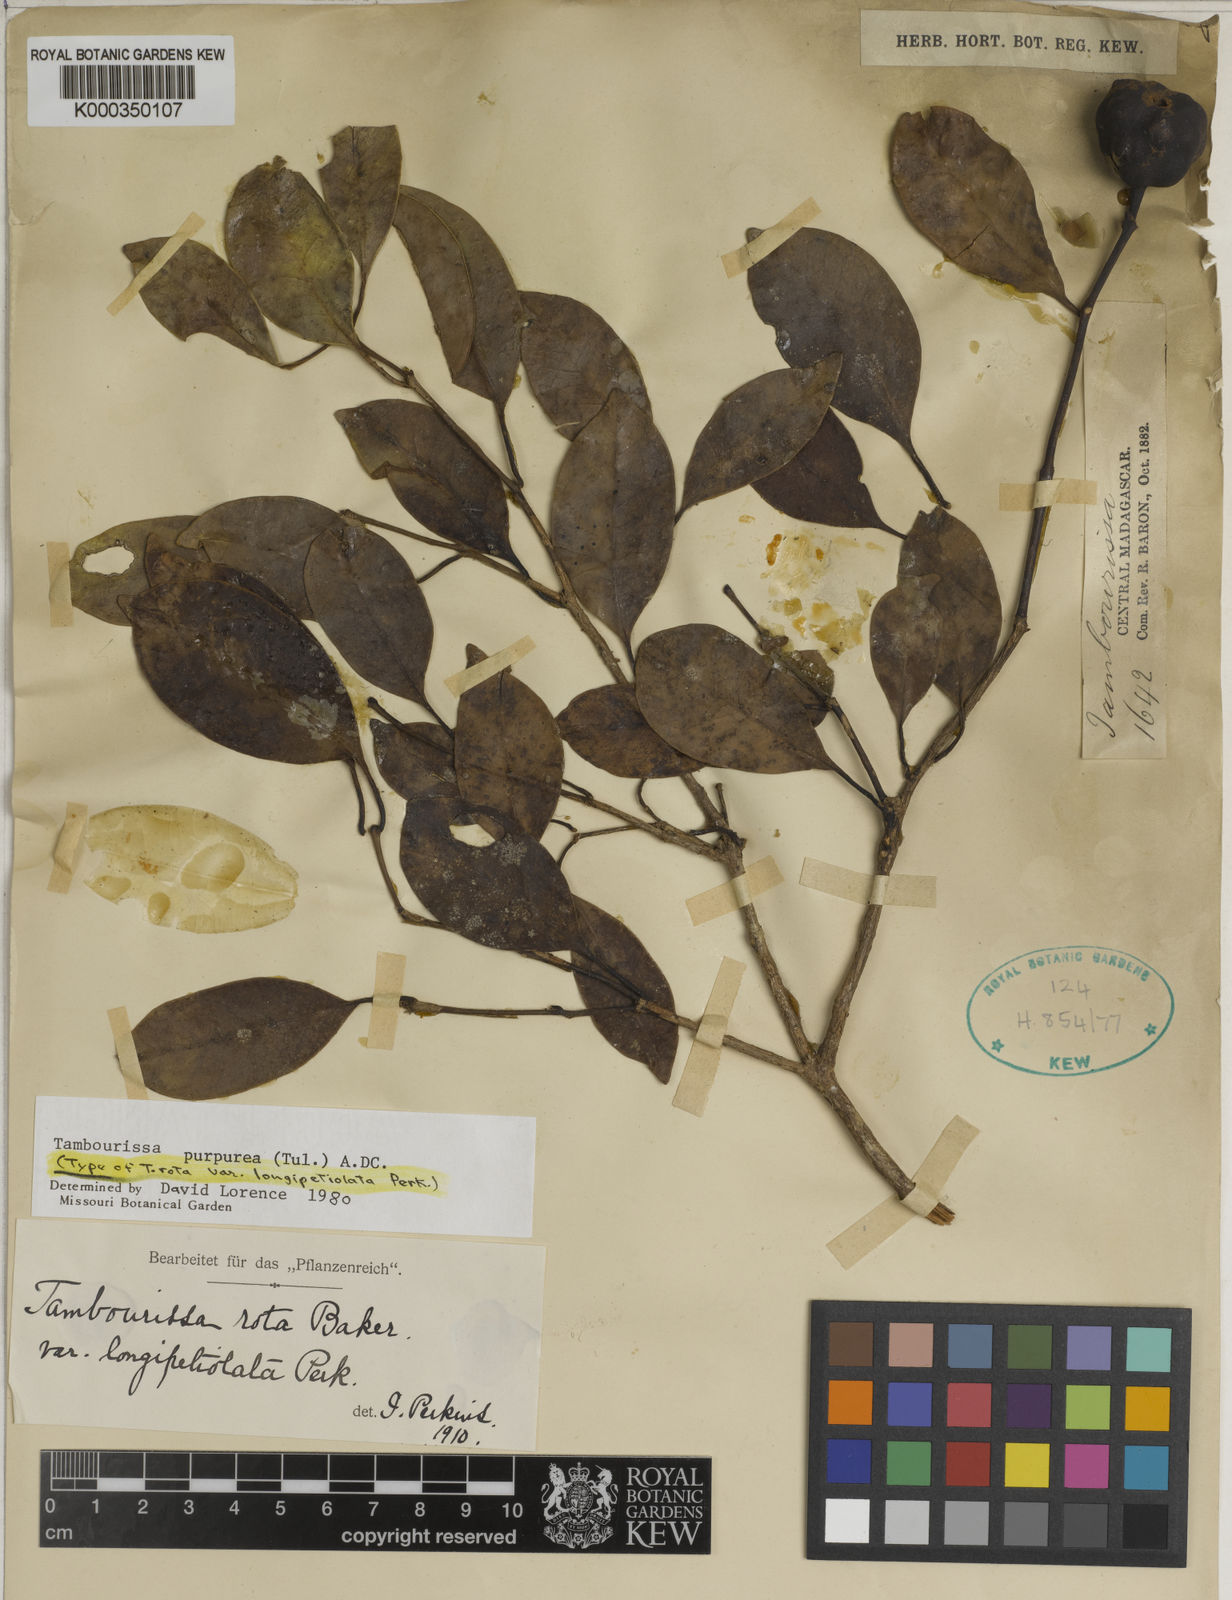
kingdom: Plantae
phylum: Tracheophyta
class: Magnoliopsida
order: Laurales
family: Monimiaceae
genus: Tambourissa
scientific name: Tambourissa purpurea
